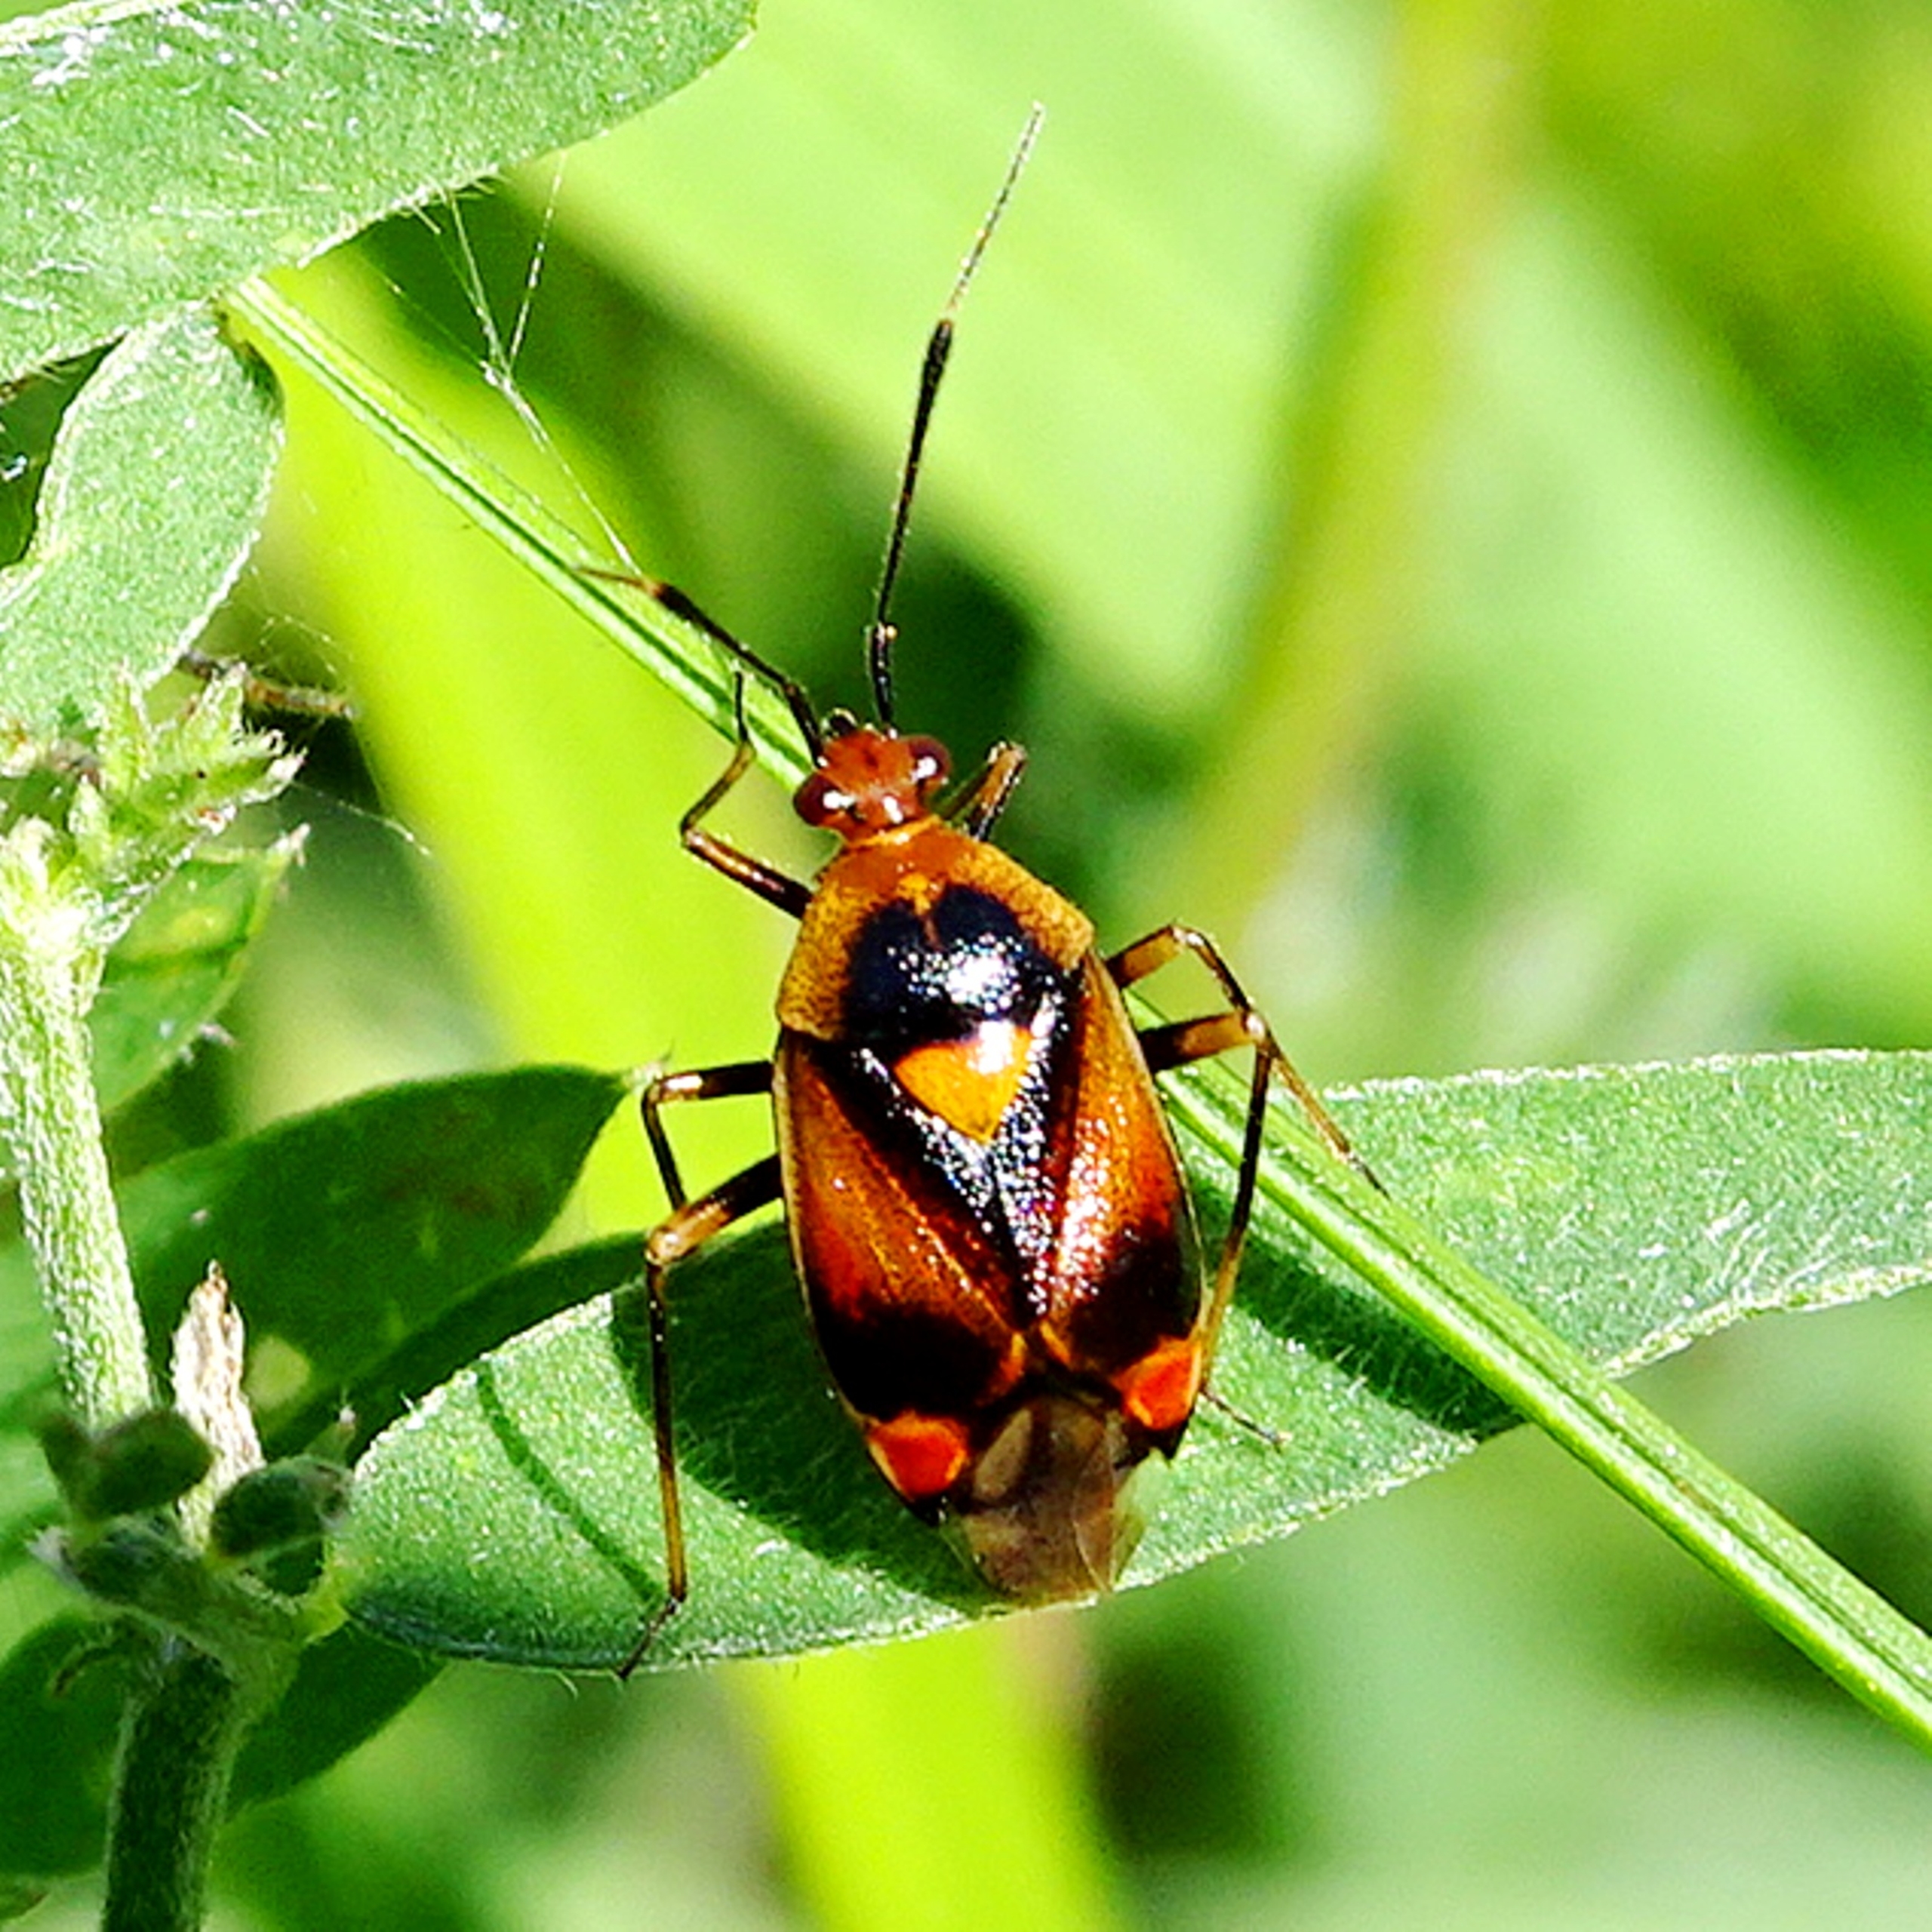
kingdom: Animalia
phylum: Arthropoda
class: Insecta
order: Hemiptera
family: Miridae
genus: Deraeocoris
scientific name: Deraeocoris ruber
